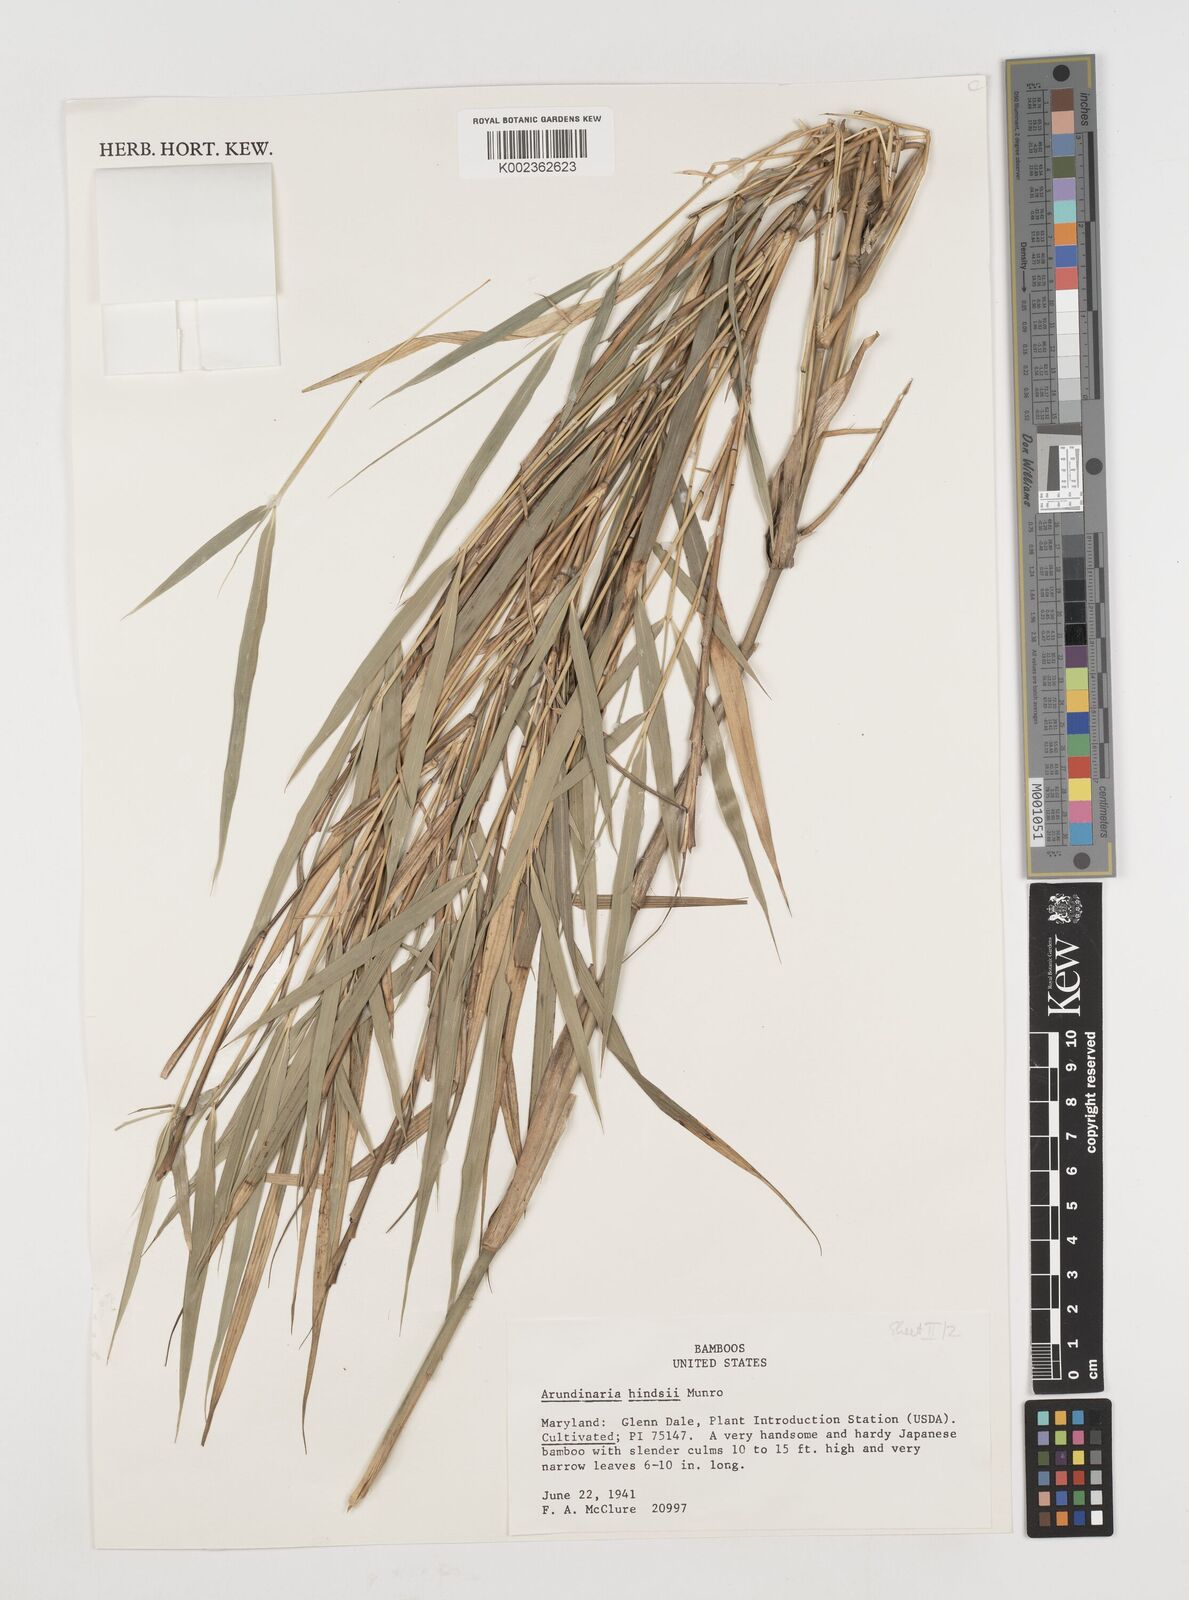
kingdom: Plantae
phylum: Tracheophyta
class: Liliopsida
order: Poales
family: Poaceae
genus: Pseudosasa
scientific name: Pseudosasa hindsii
